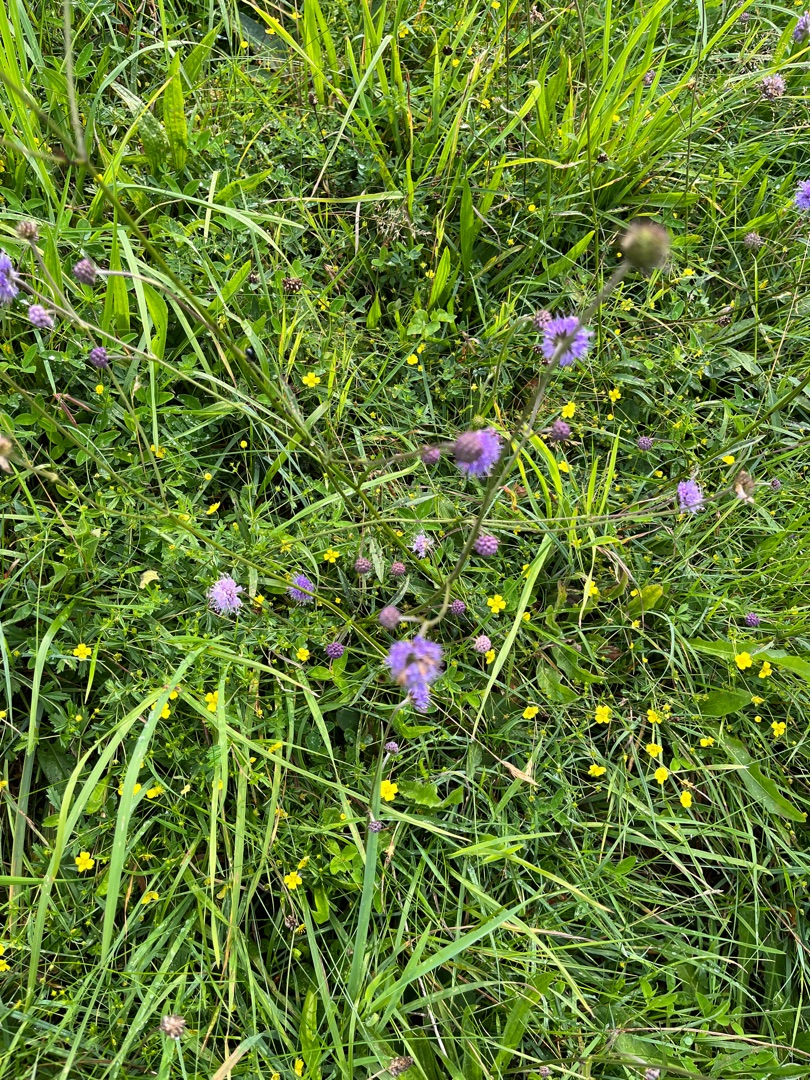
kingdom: Plantae
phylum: Tracheophyta
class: Magnoliopsida
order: Dipsacales
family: Caprifoliaceae
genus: Succisa
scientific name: Succisa pratensis
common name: Djævelsbid
